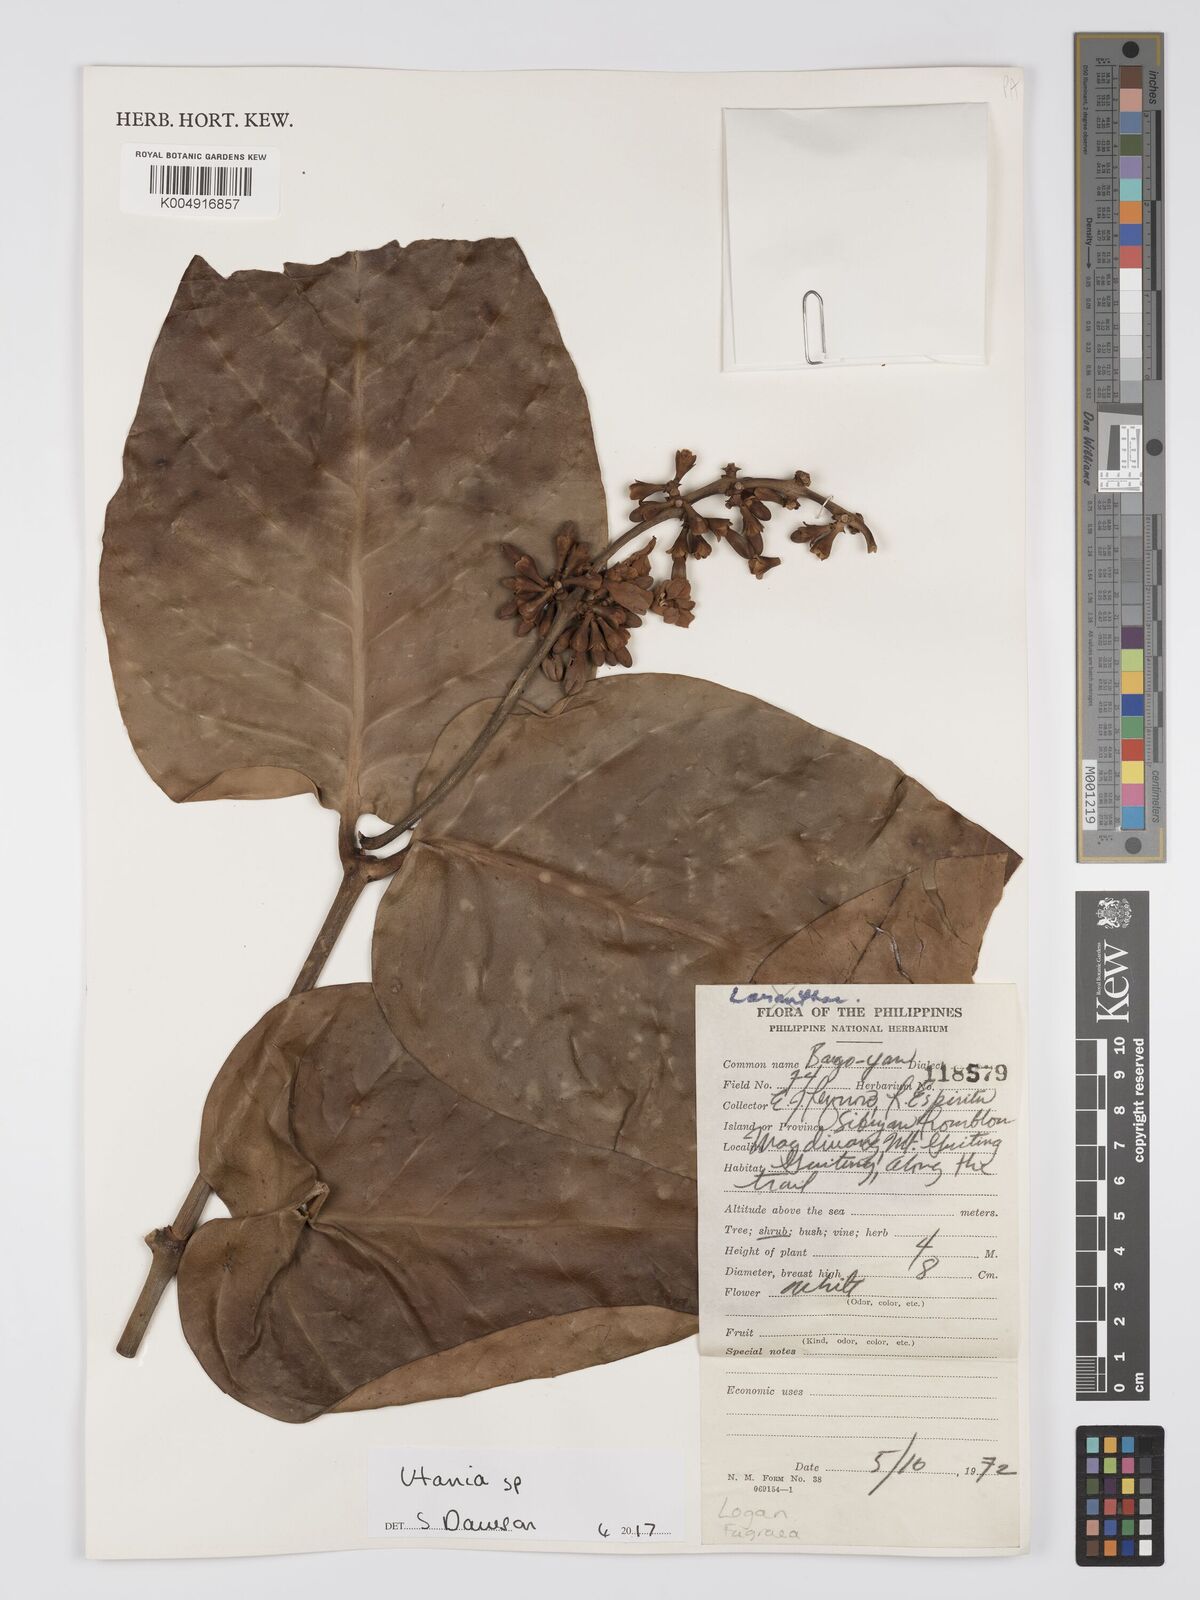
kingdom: Plantae
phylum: Tracheophyta
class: Magnoliopsida
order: Gentianales
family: Gentianaceae
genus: Utania
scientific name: Utania
